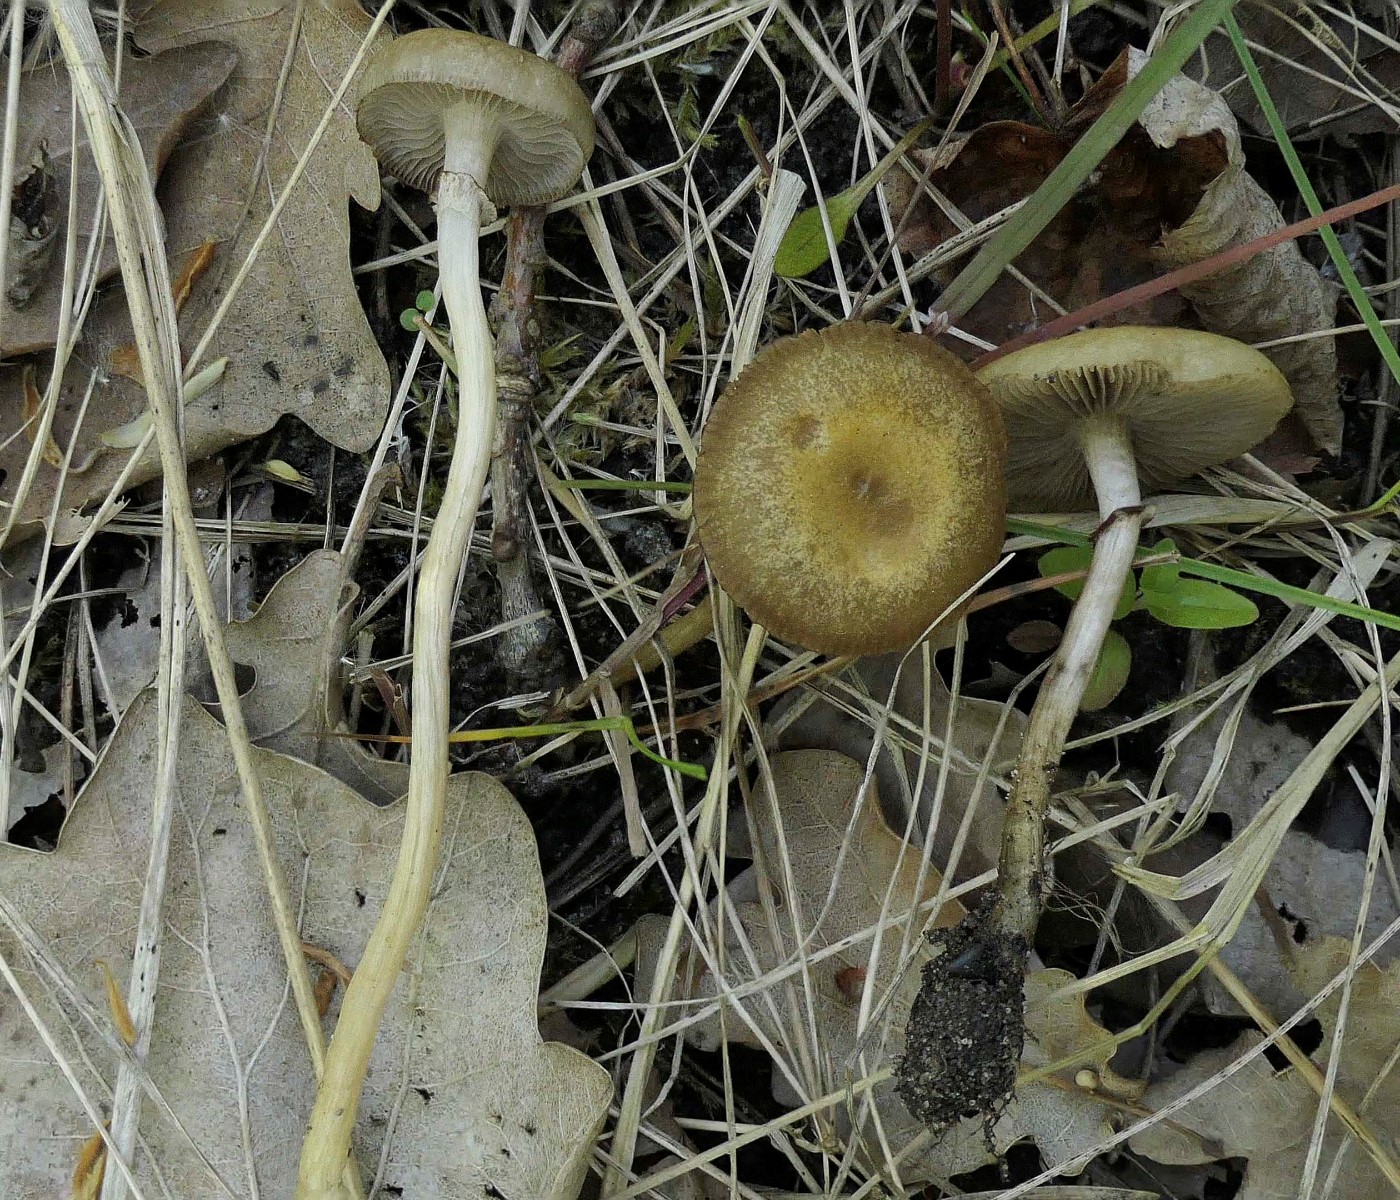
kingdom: Fungi
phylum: Basidiomycota
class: Agaricomycetes
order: Agaricales
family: Strophariaceae
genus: Agrocybe
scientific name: Agrocybe elatella
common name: mose-agerhat
